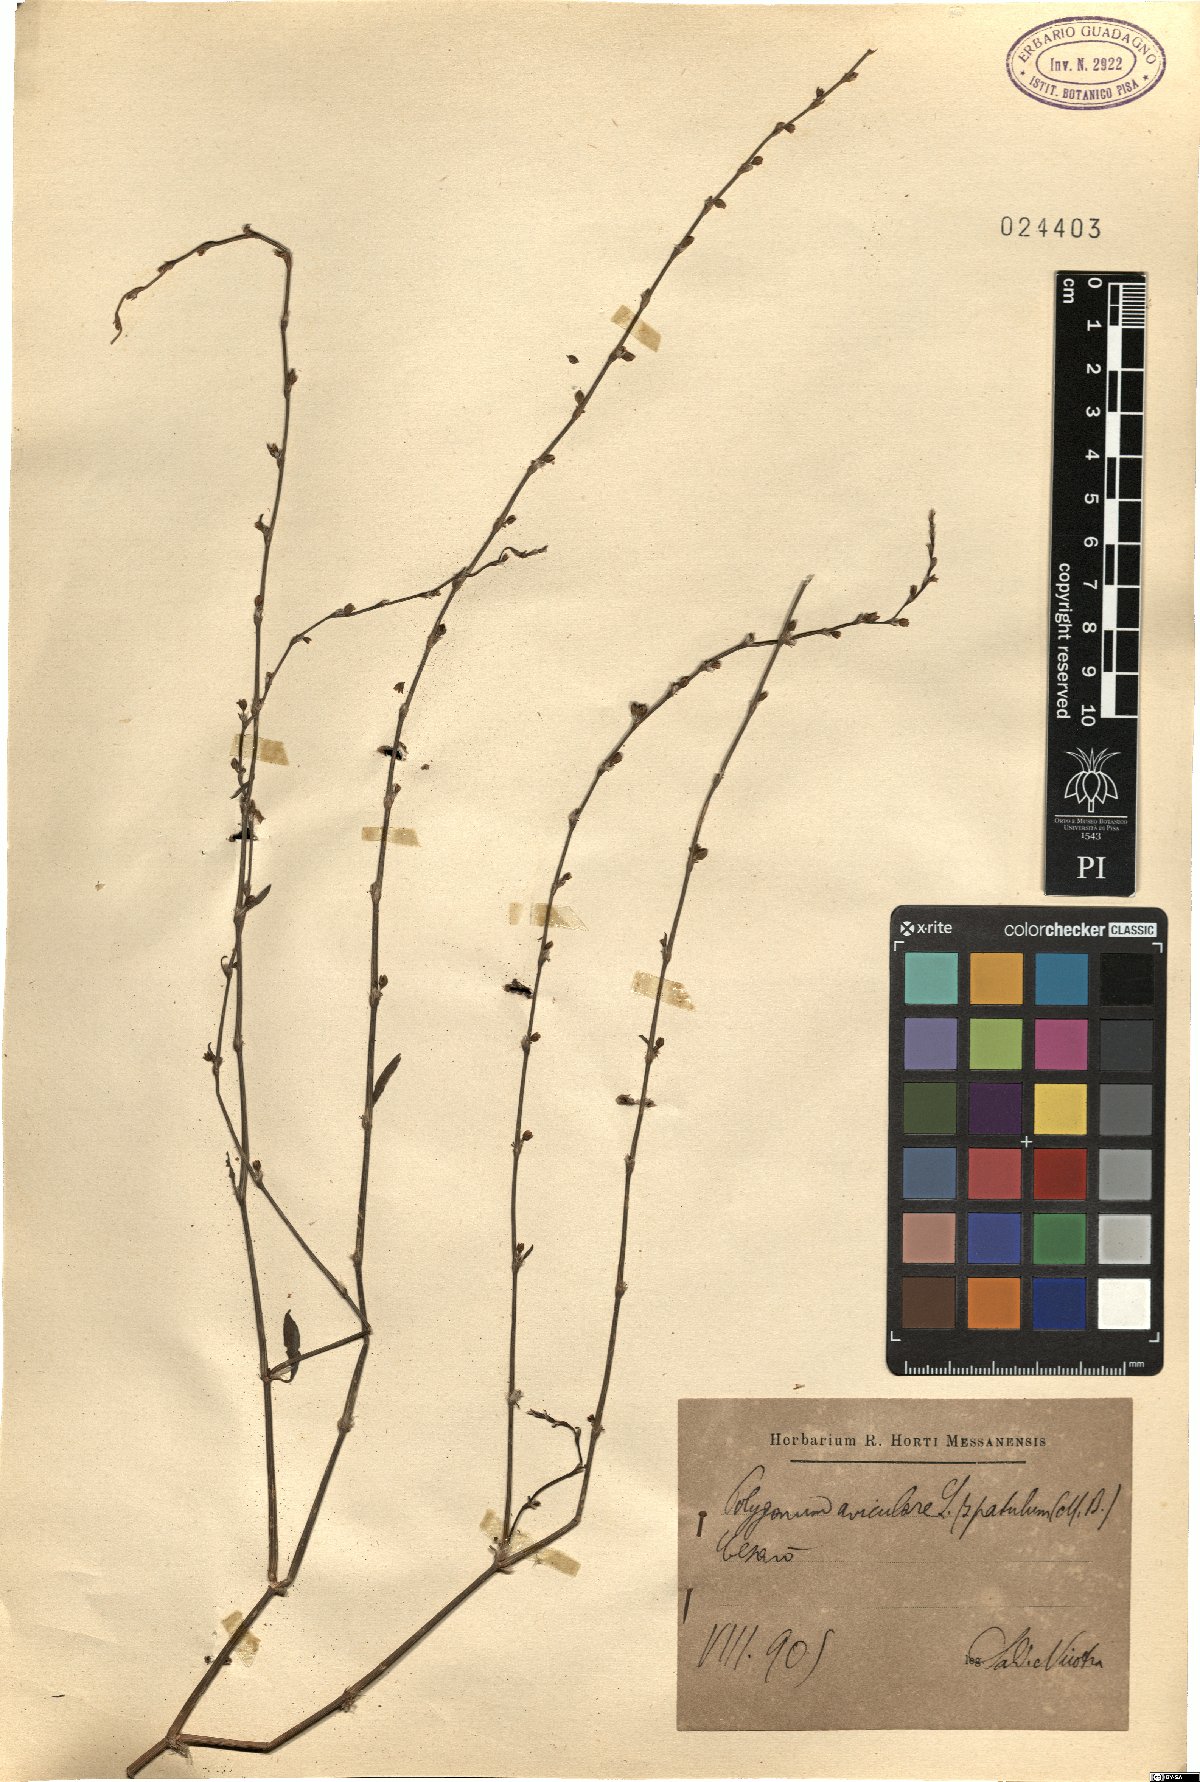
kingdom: Plantae
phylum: Tracheophyta
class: Magnoliopsida
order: Caryophyllales
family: Polygonaceae
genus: Polygonum
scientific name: Polygonum aviculare
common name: Prostrate knotweed
